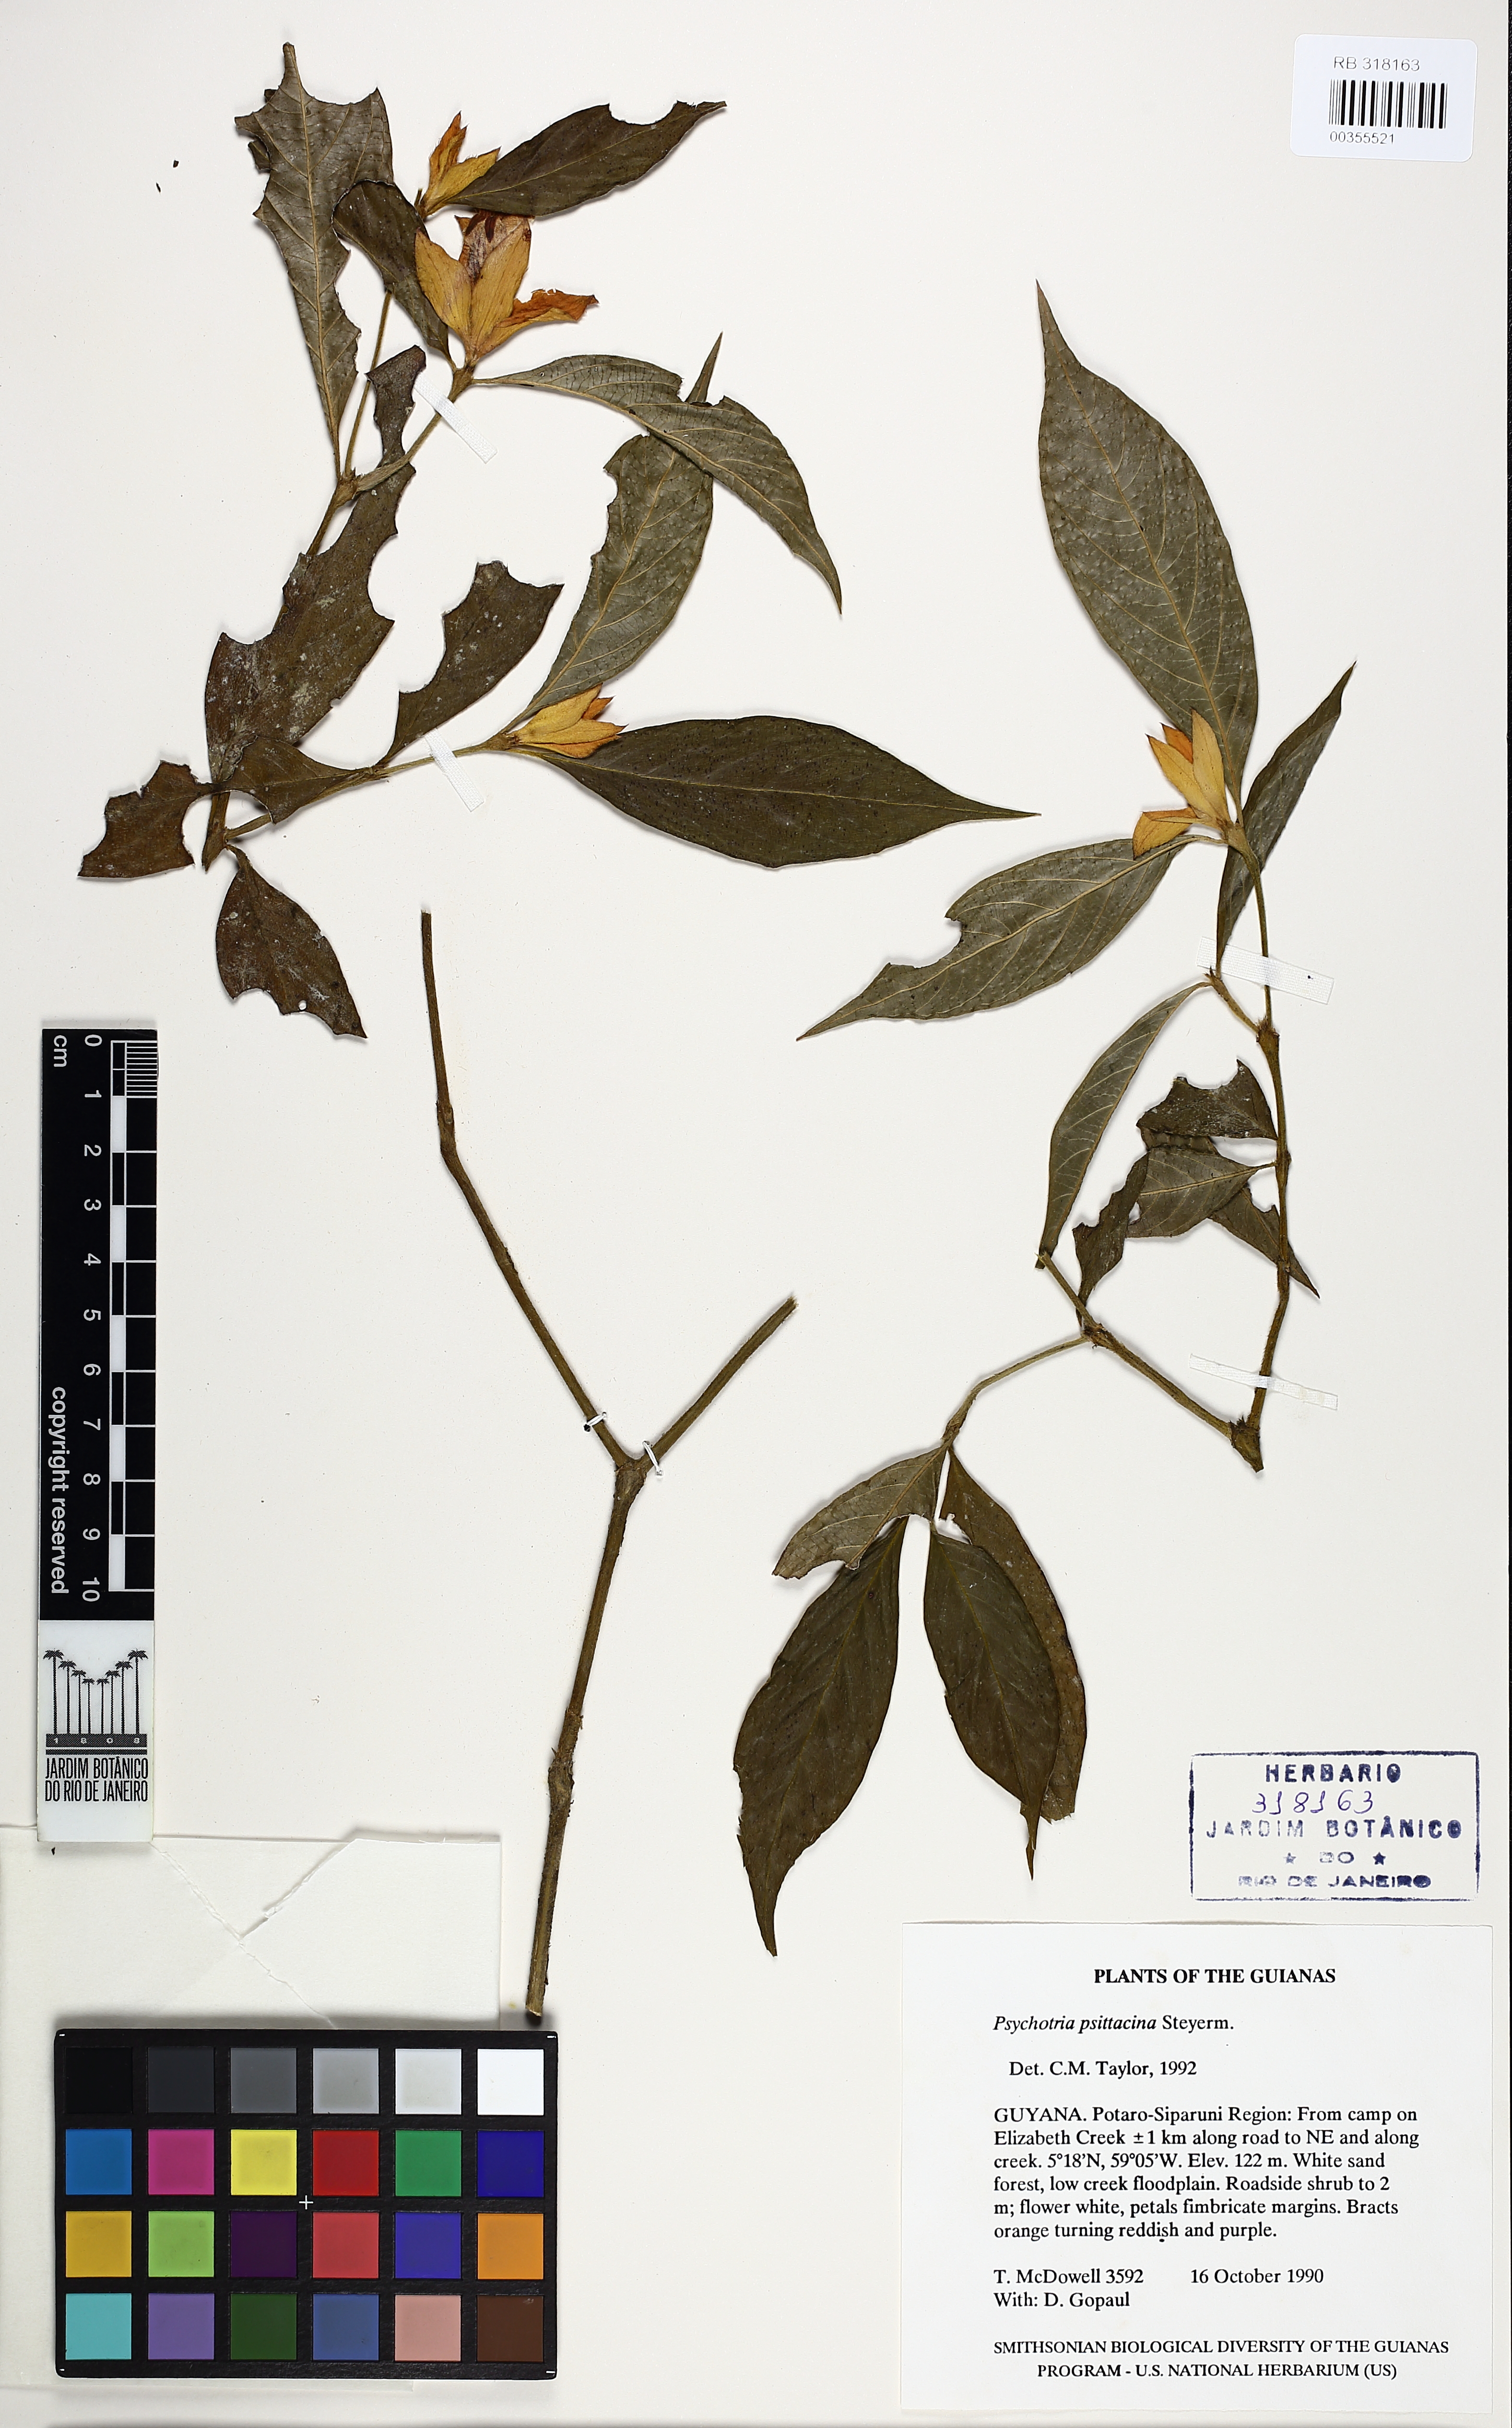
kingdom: Plantae
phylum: Tracheophyta
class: Magnoliopsida
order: Gentianales
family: Rubiaceae
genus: Palicourea
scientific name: Palicourea psittacina
